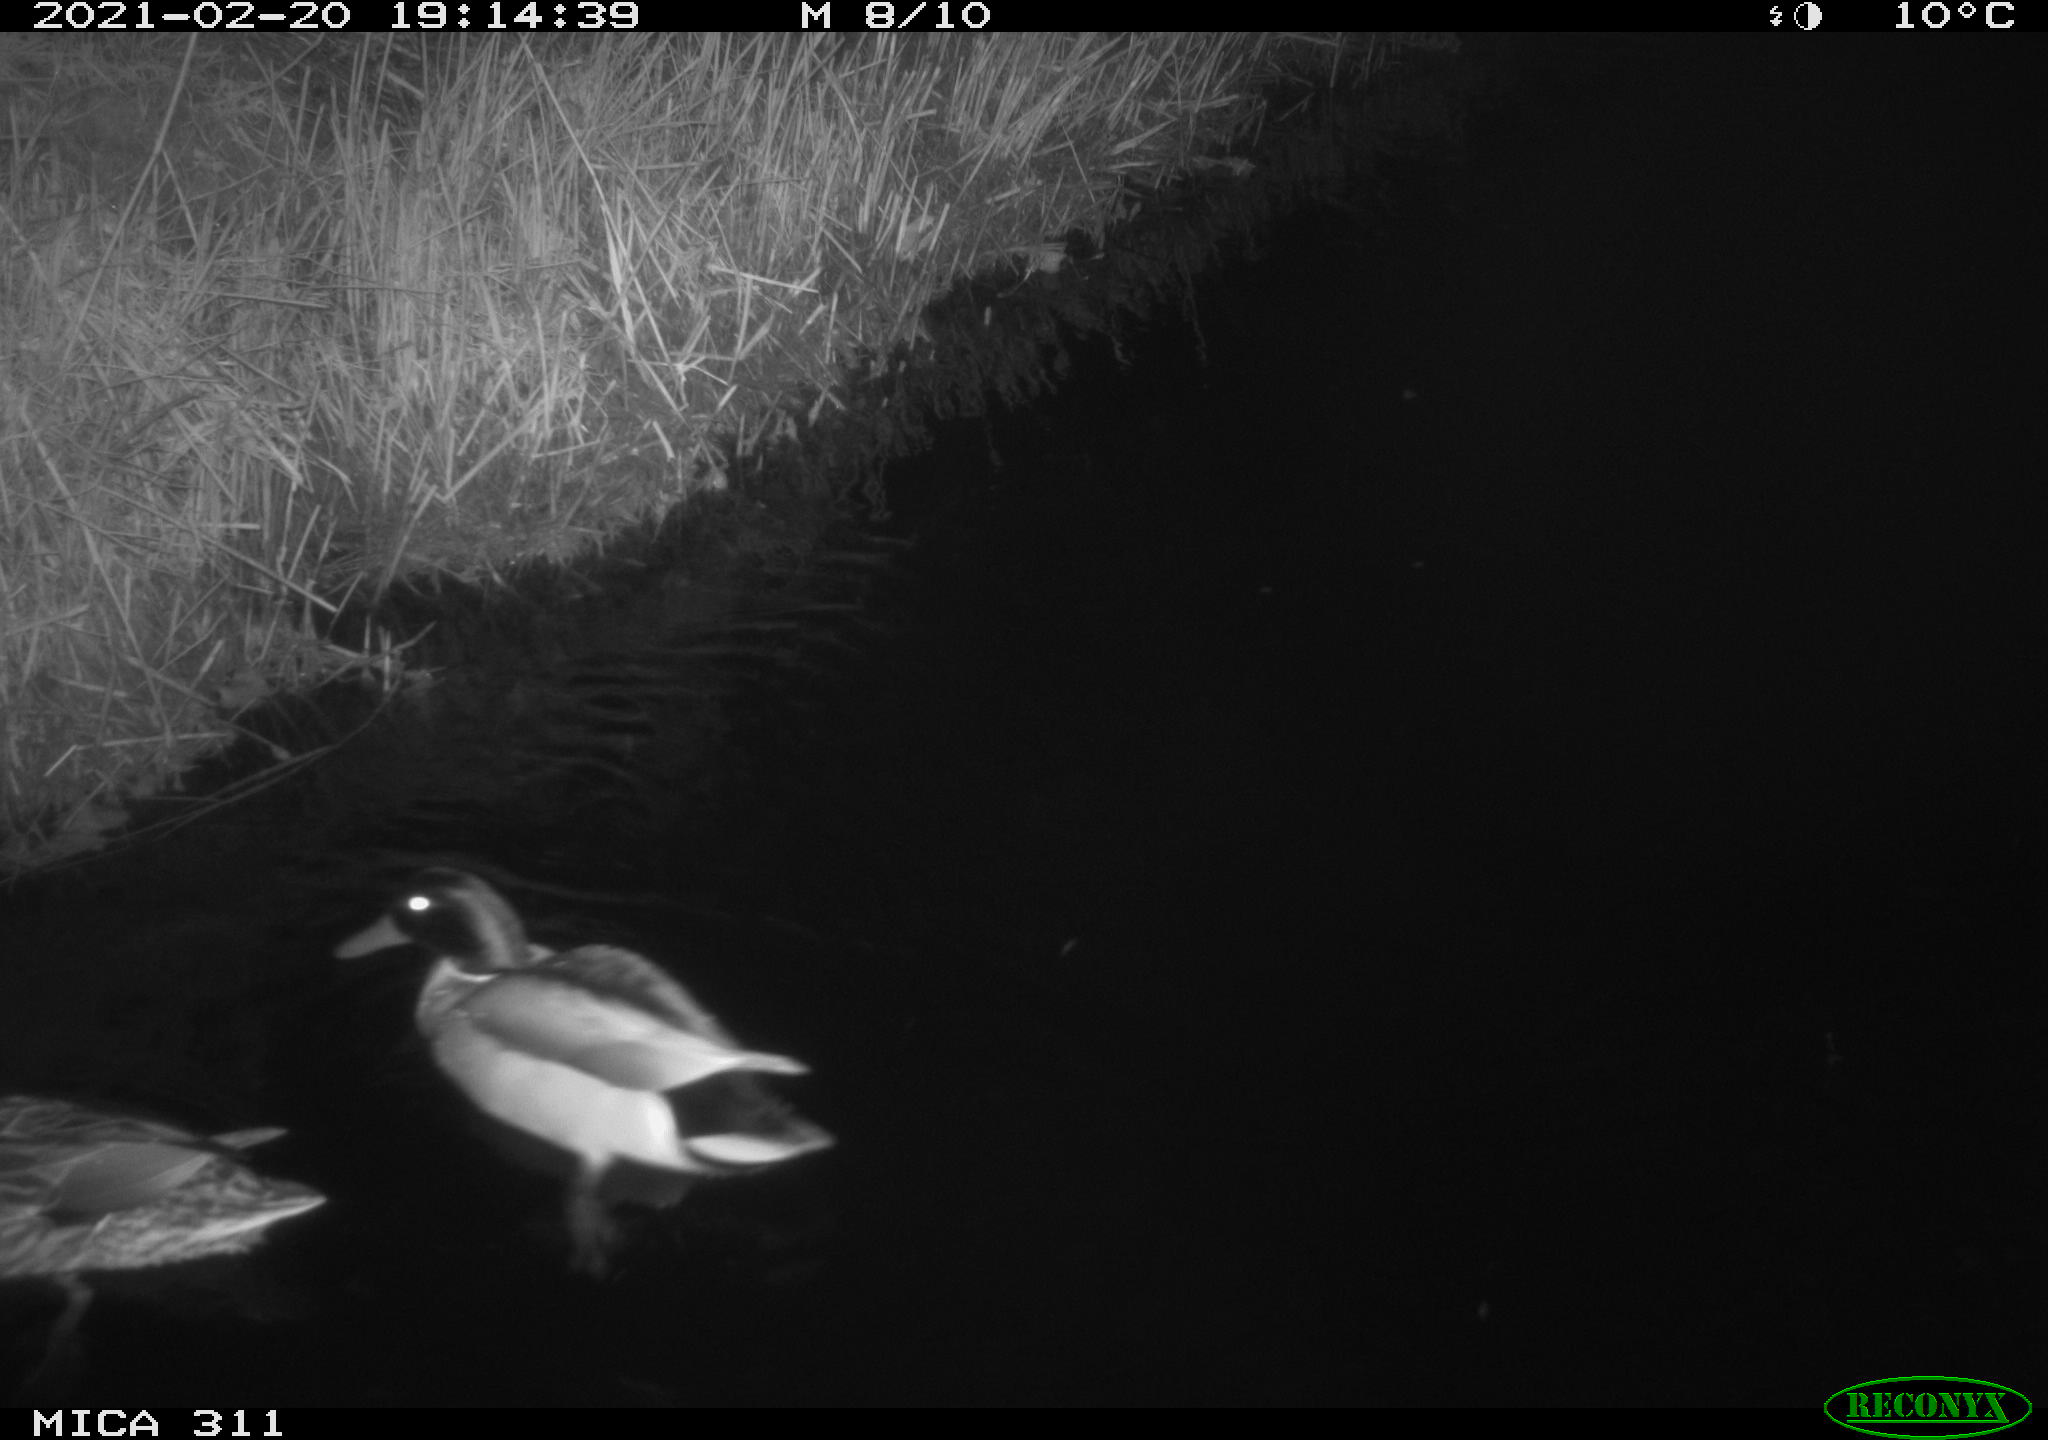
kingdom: Animalia
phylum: Chordata
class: Aves
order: Anseriformes
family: Anatidae
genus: Anas
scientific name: Anas
